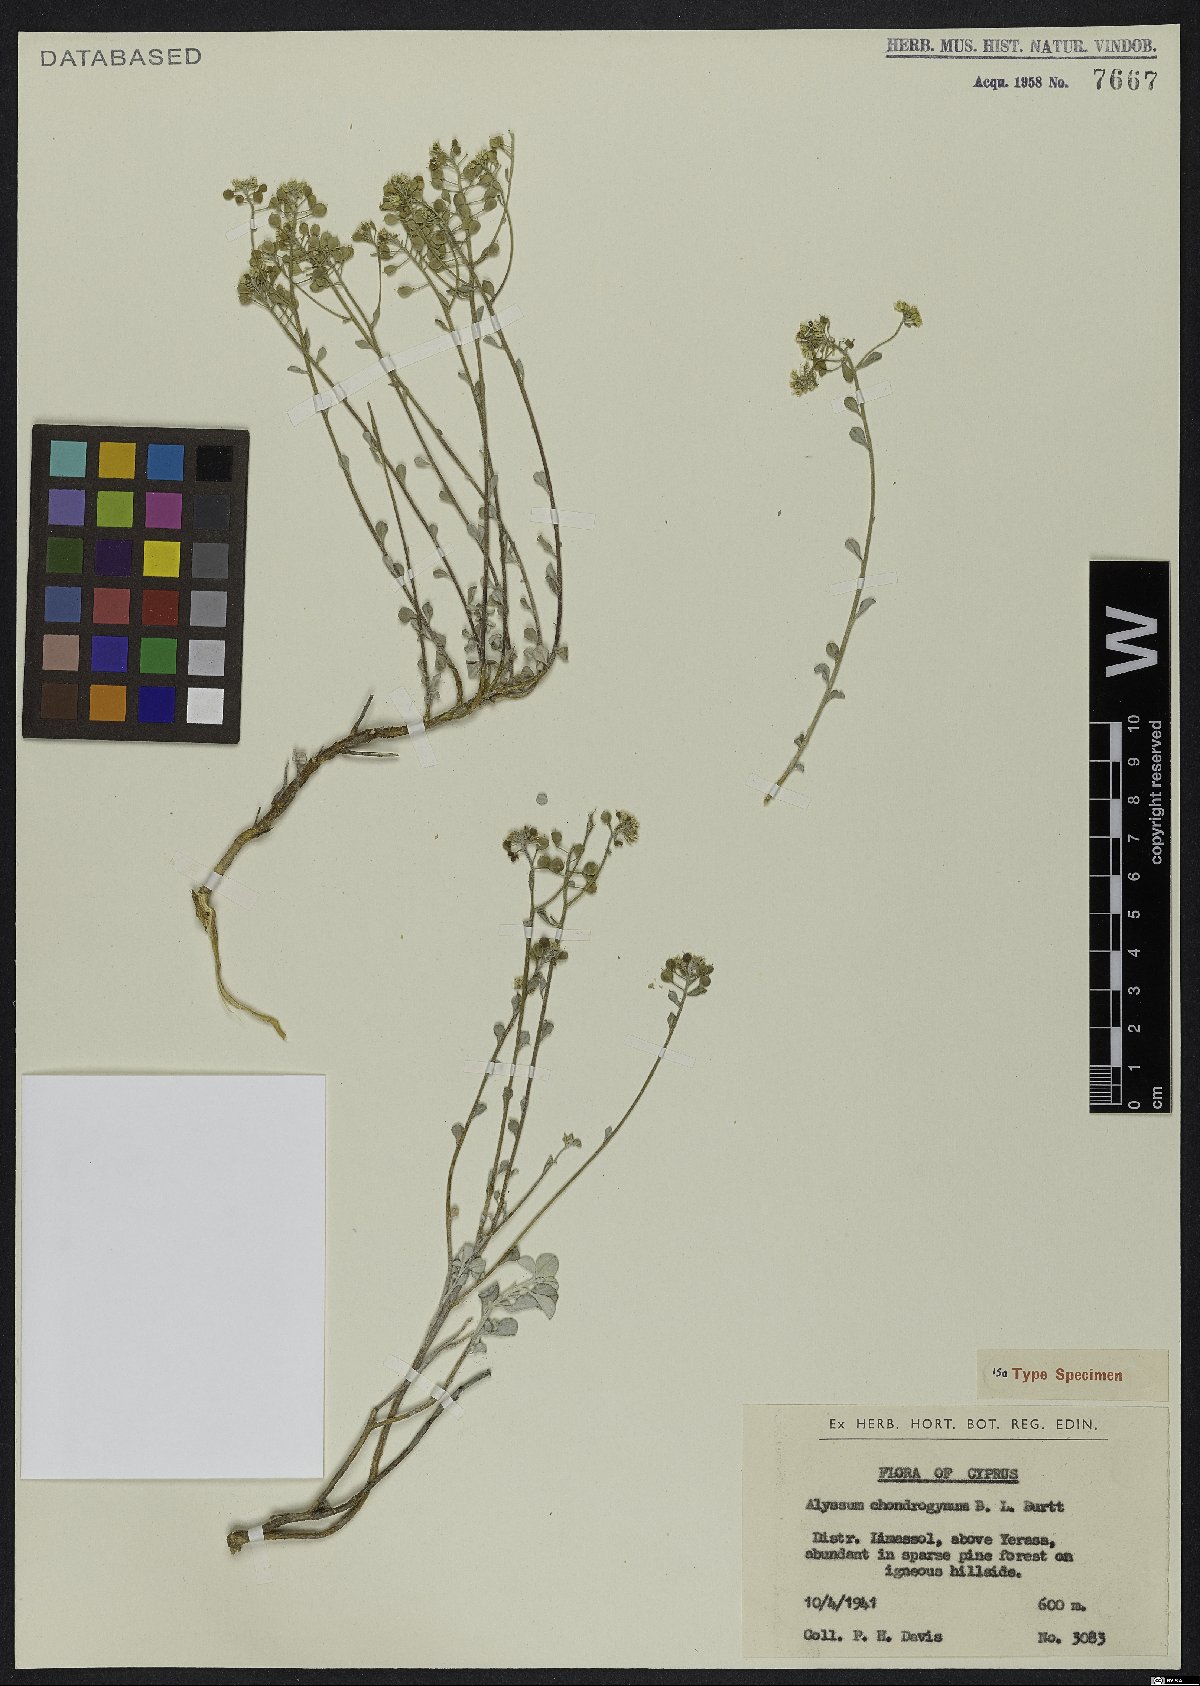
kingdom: Plantae
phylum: Tracheophyta
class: Magnoliopsida
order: Brassicales
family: Brassicaceae
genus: Odontarrhena
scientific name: Odontarrhena chondrogyna
